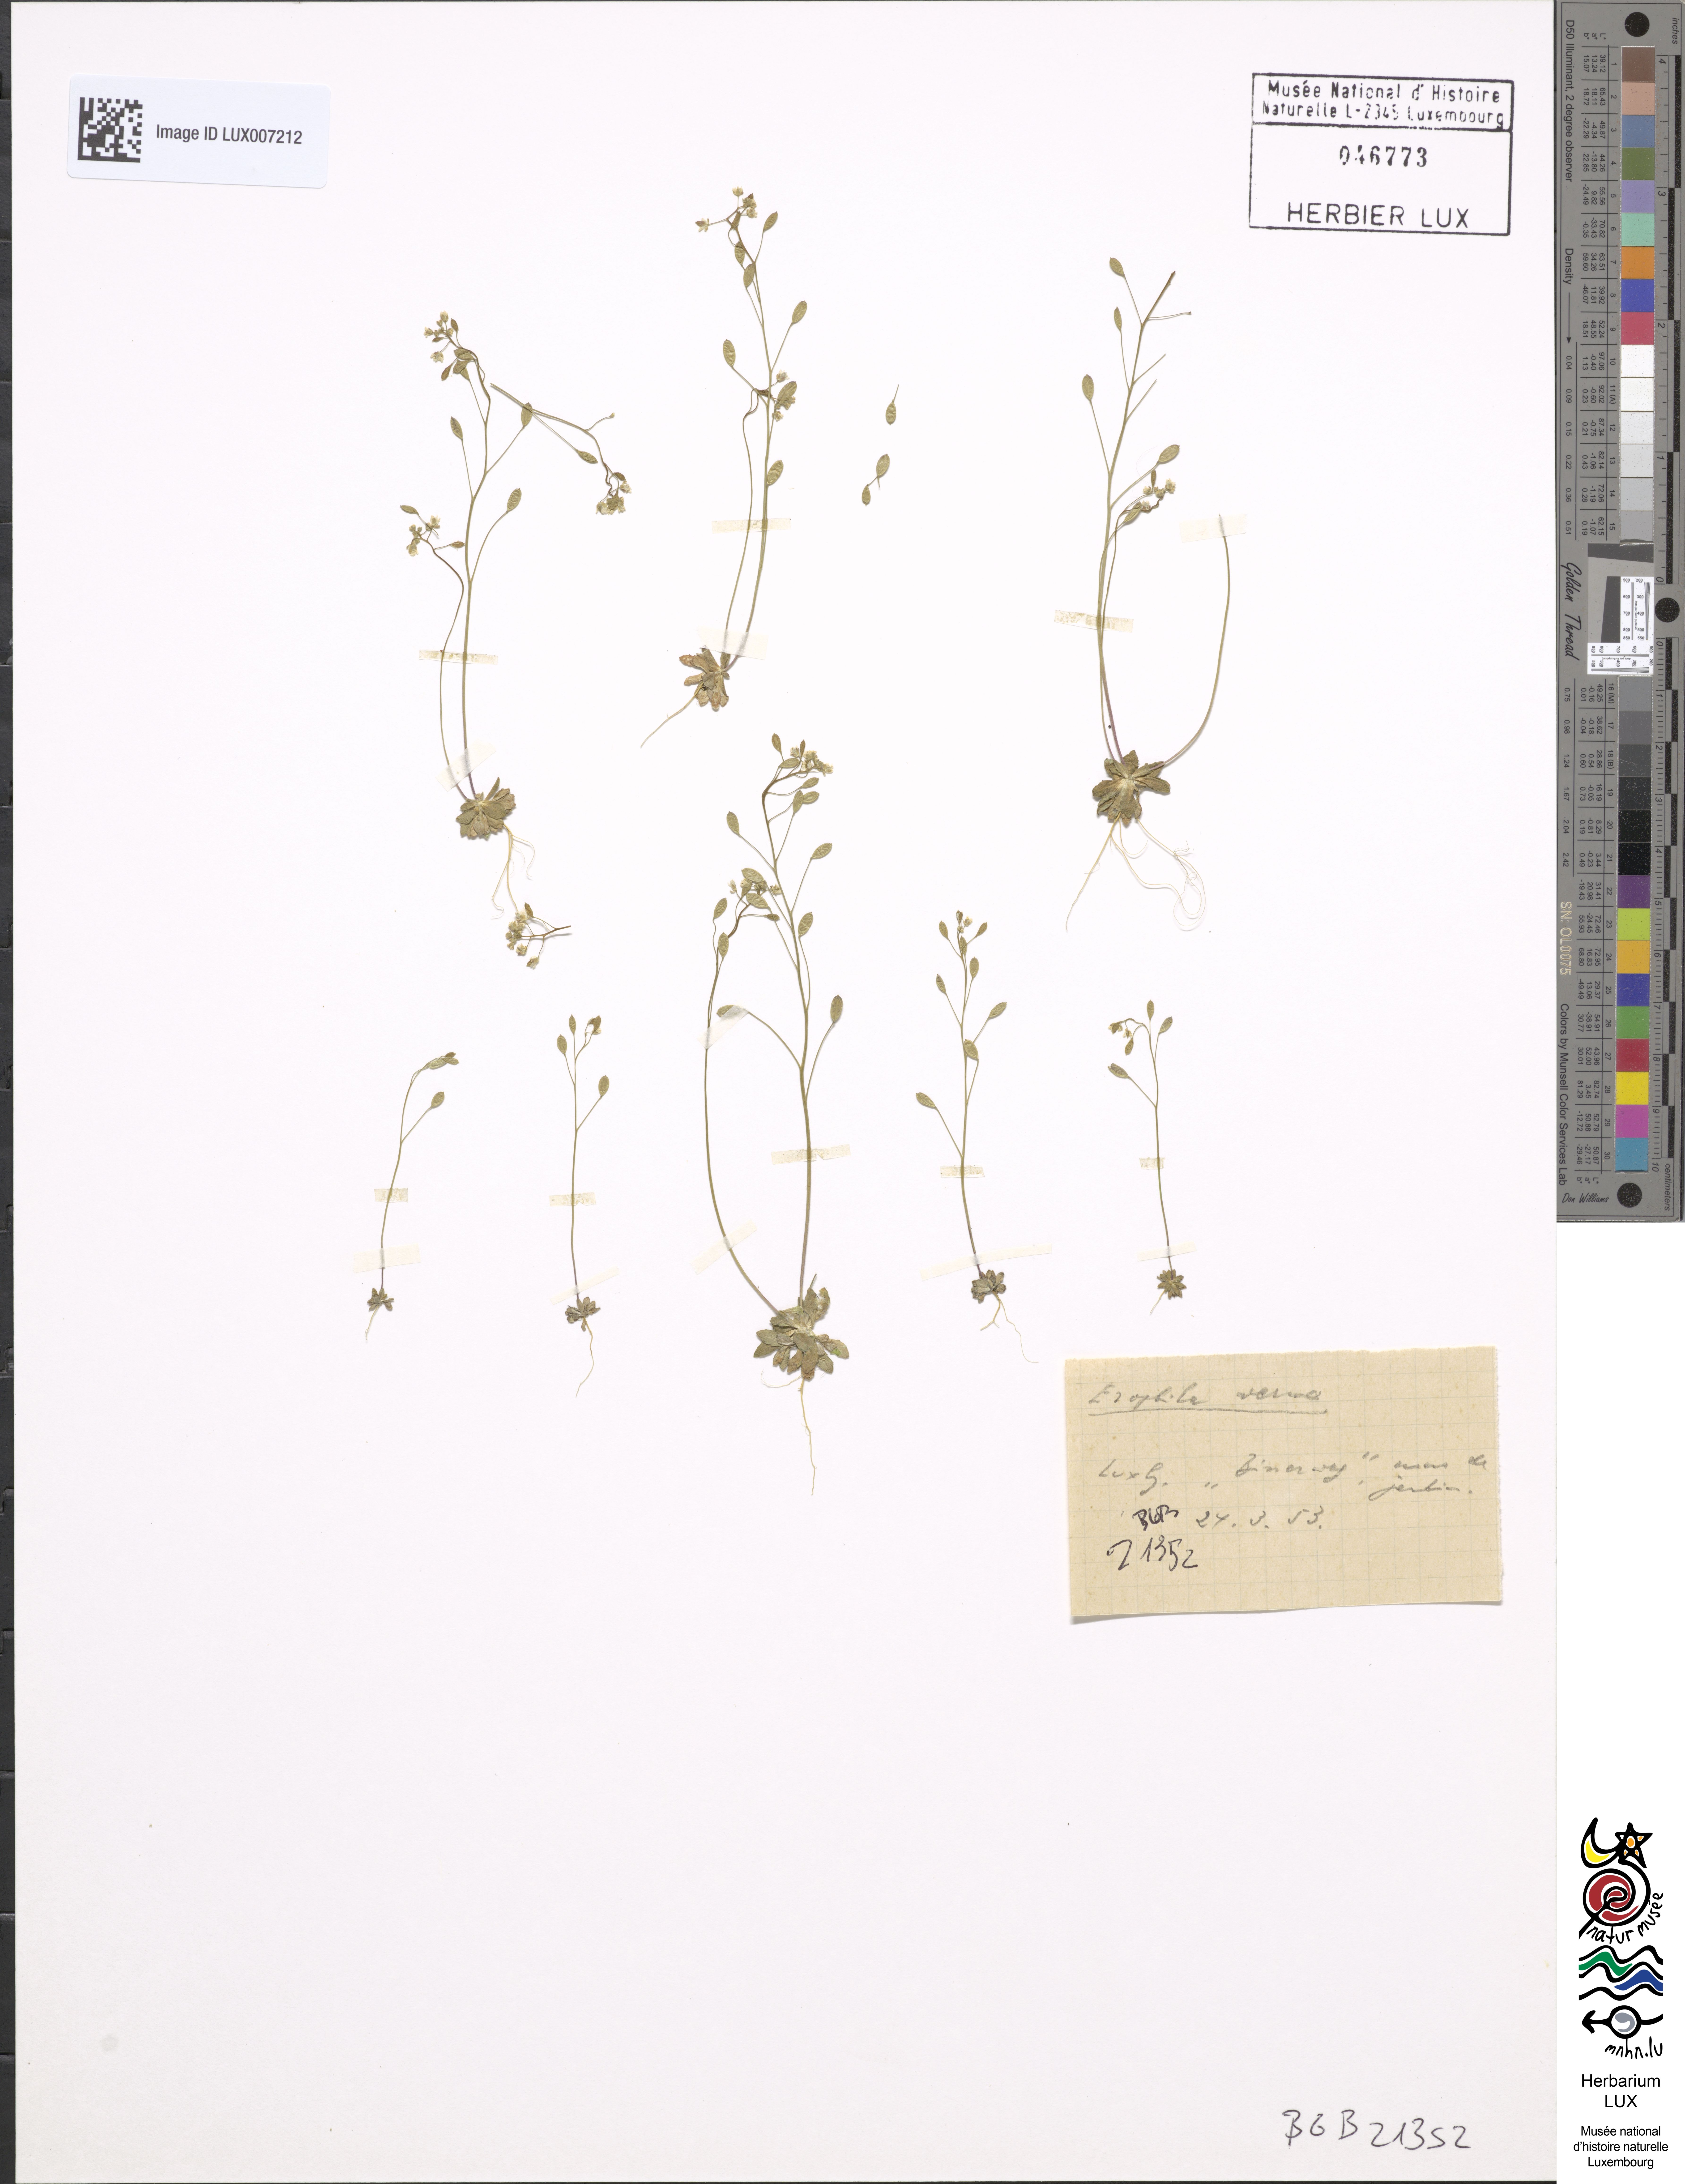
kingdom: Plantae
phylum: Tracheophyta
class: Magnoliopsida
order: Brassicales
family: Brassicaceae
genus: Draba
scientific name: Draba verna
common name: Spring draba
